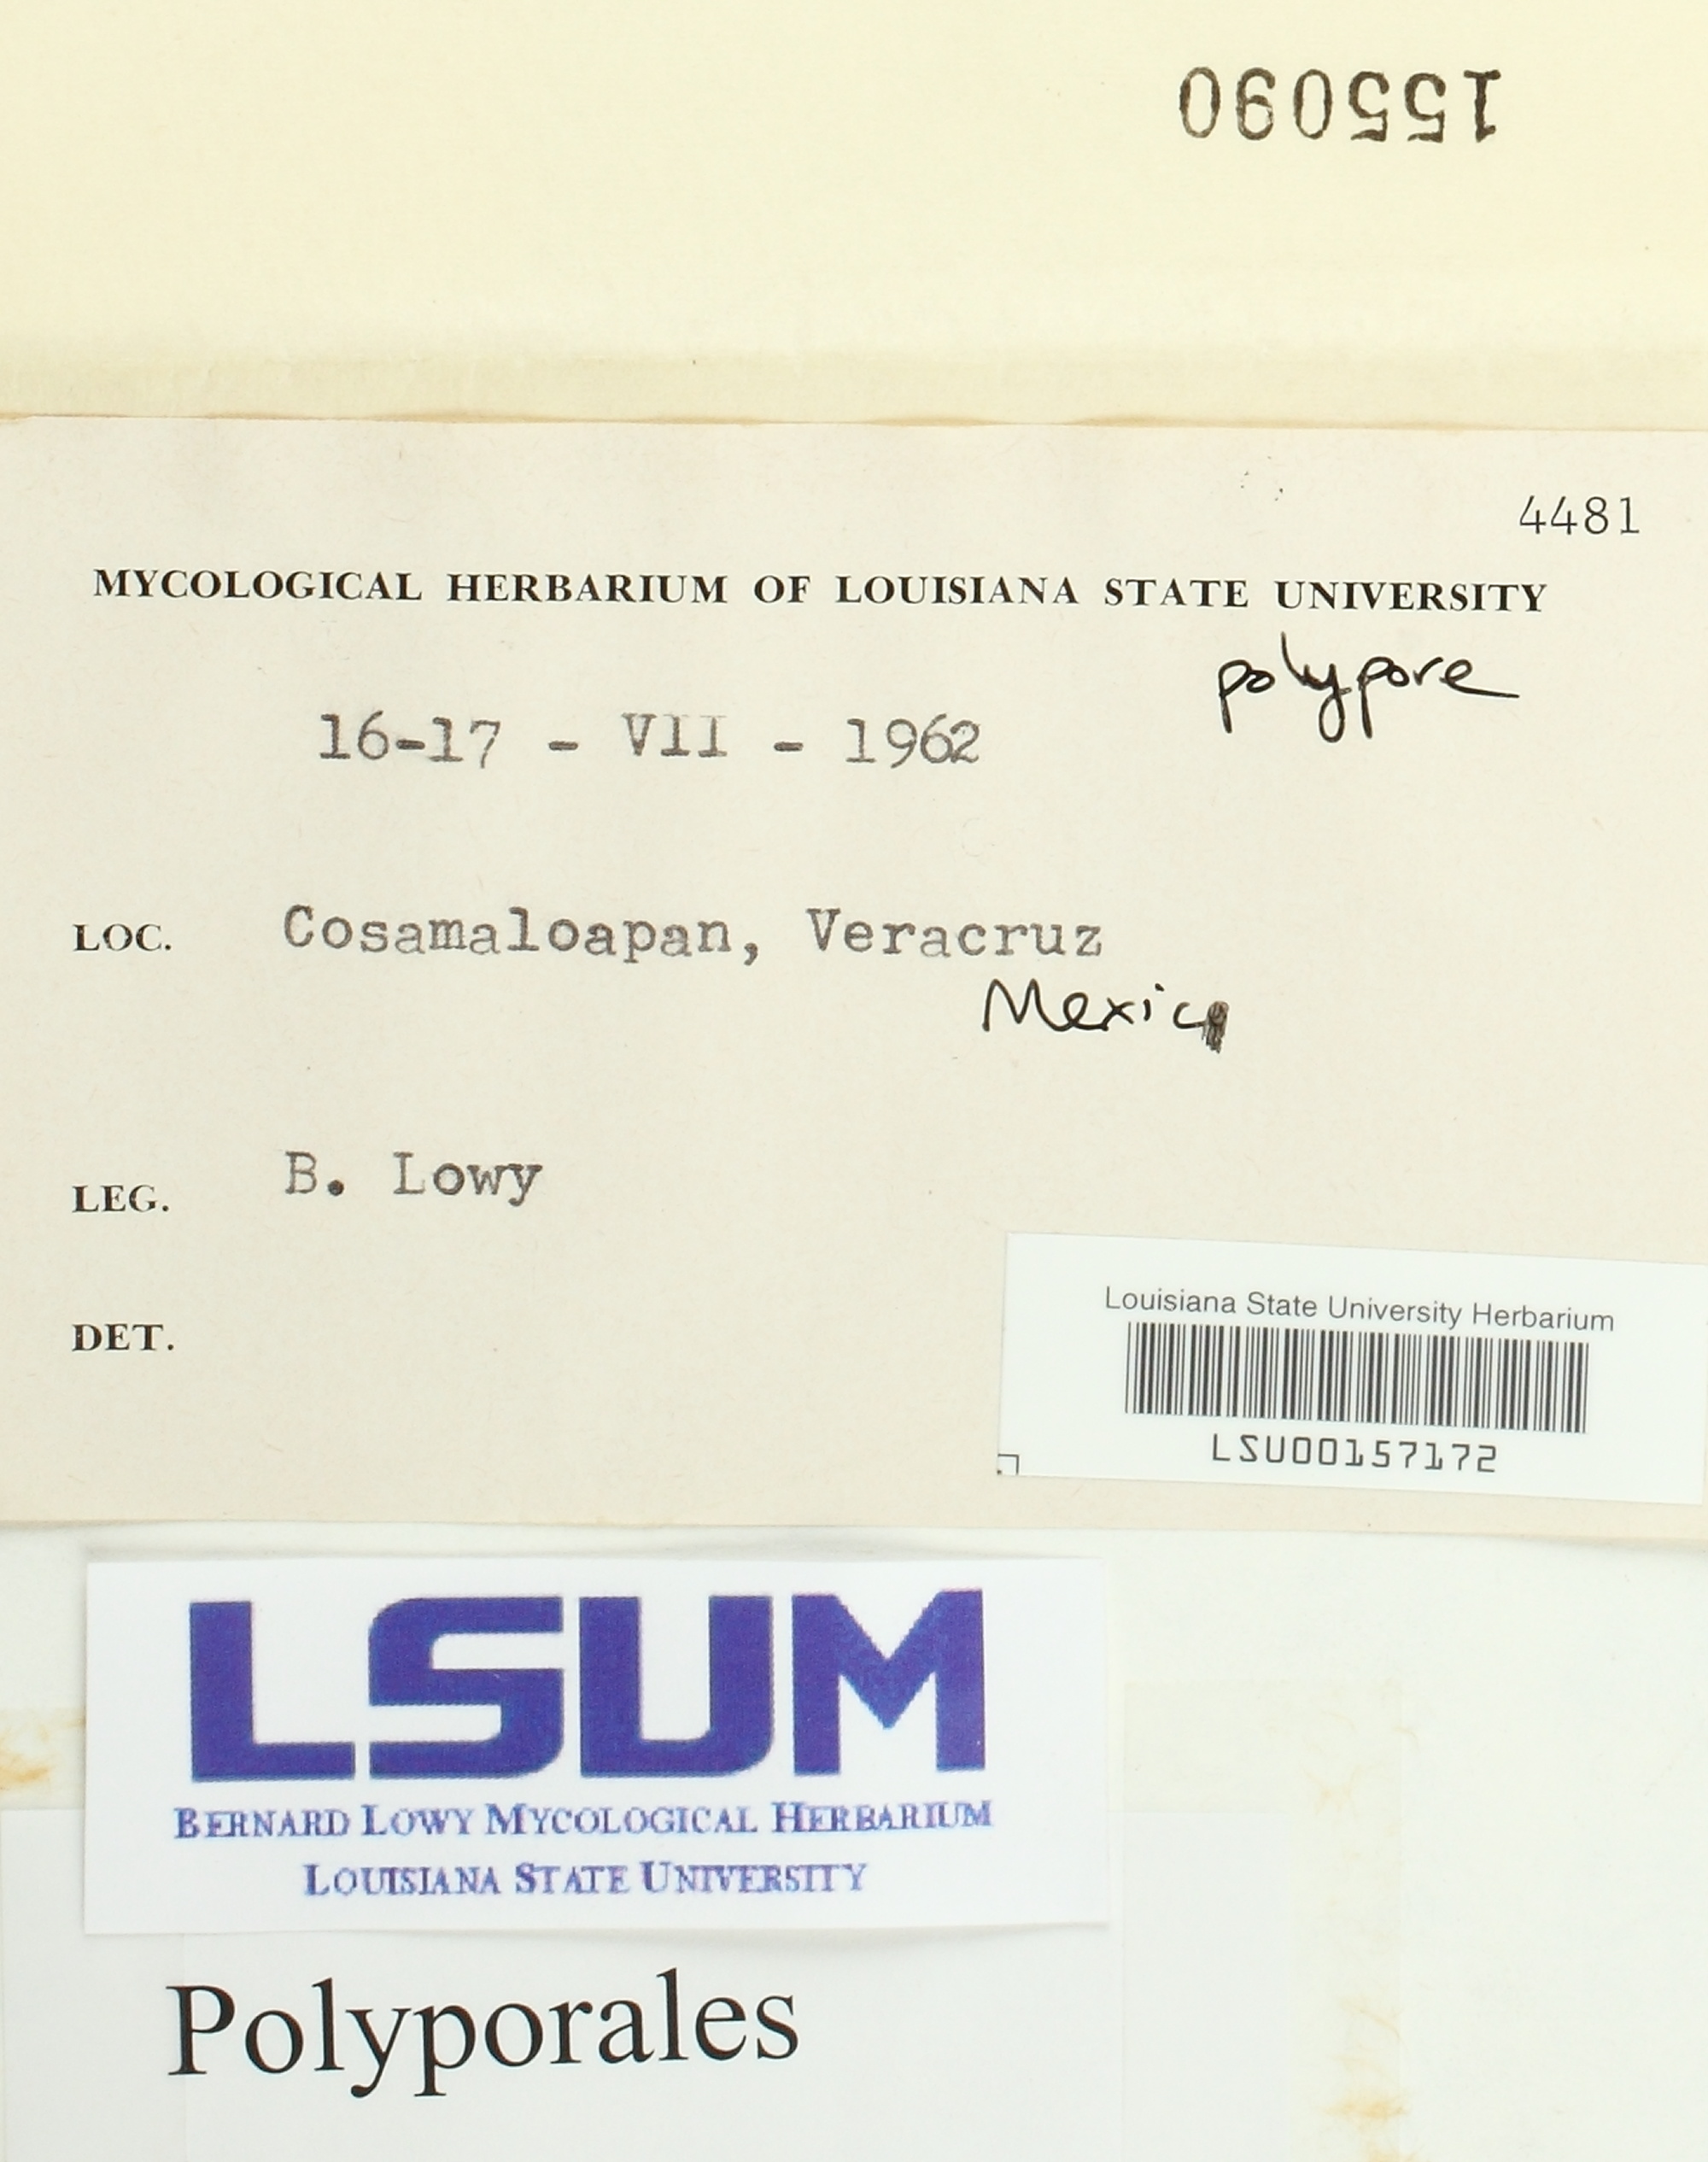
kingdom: Fungi
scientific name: Fungi
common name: Fungi
